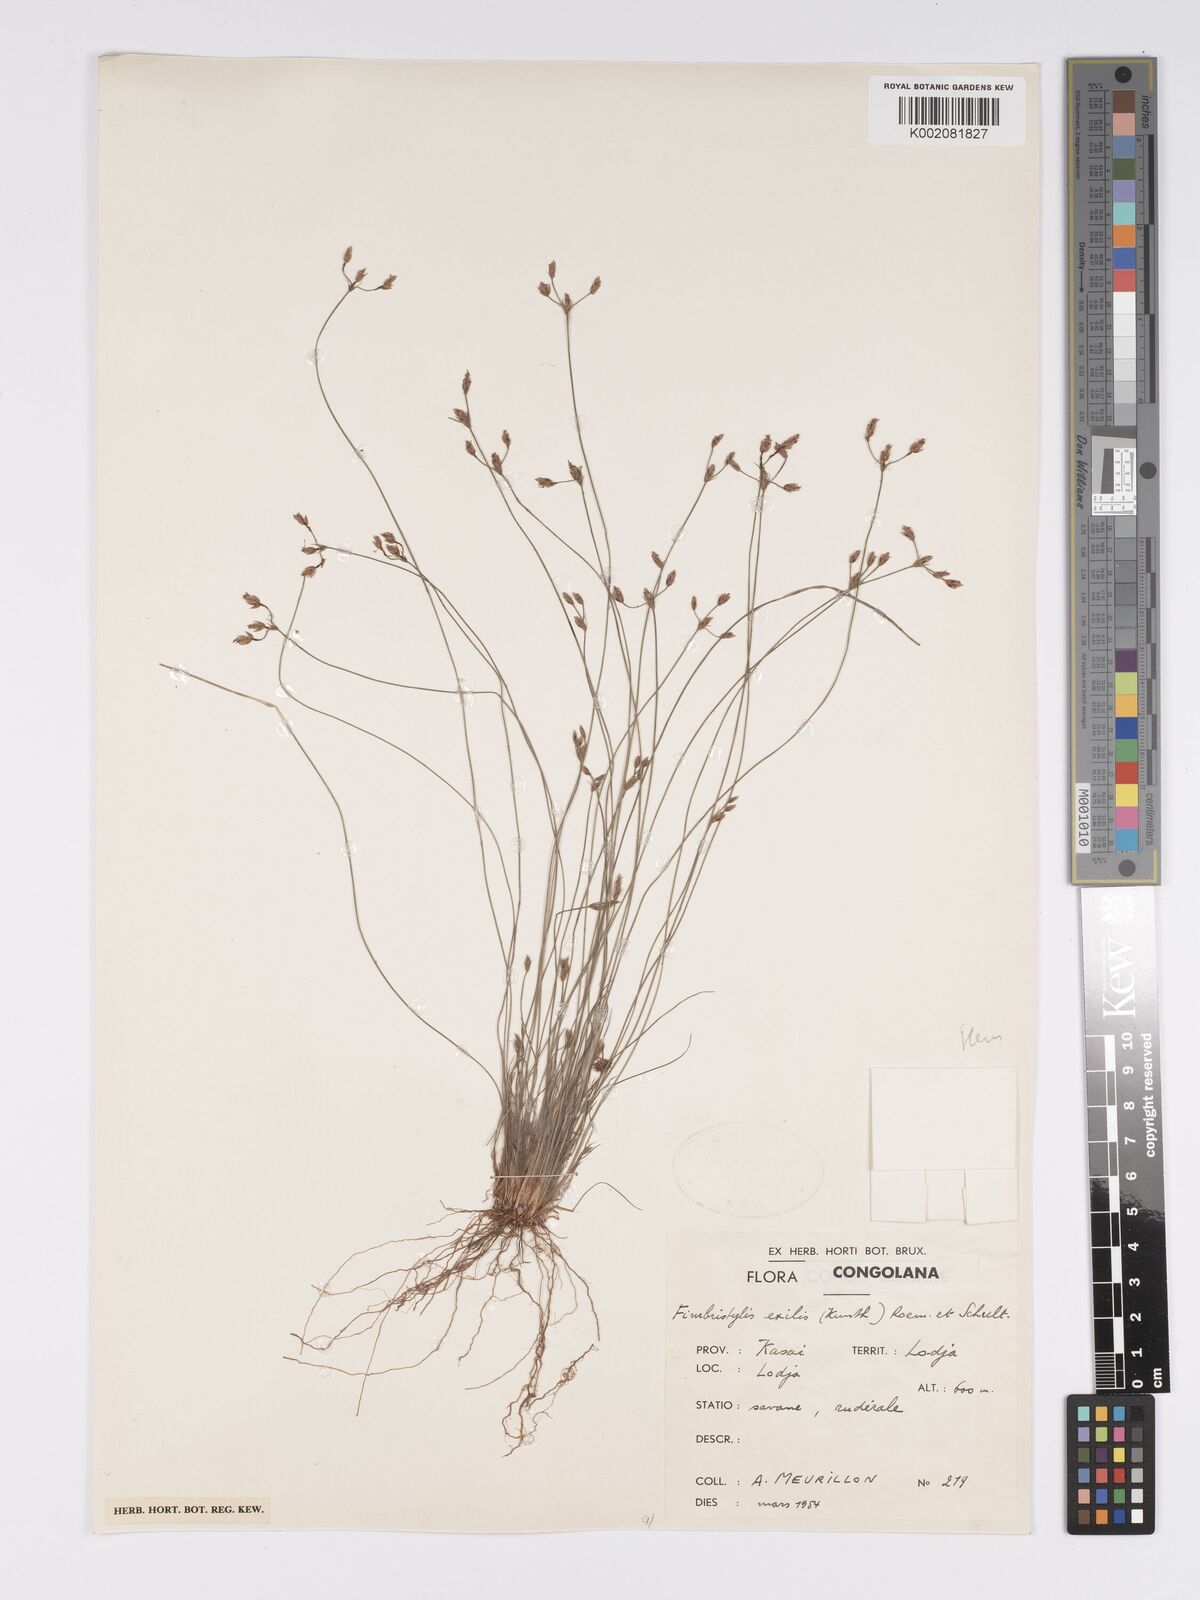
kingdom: Plantae
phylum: Tracheophyta
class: Liliopsida
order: Poales
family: Cyperaceae
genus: Bulbostylis
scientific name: Bulbostylis hispidula
